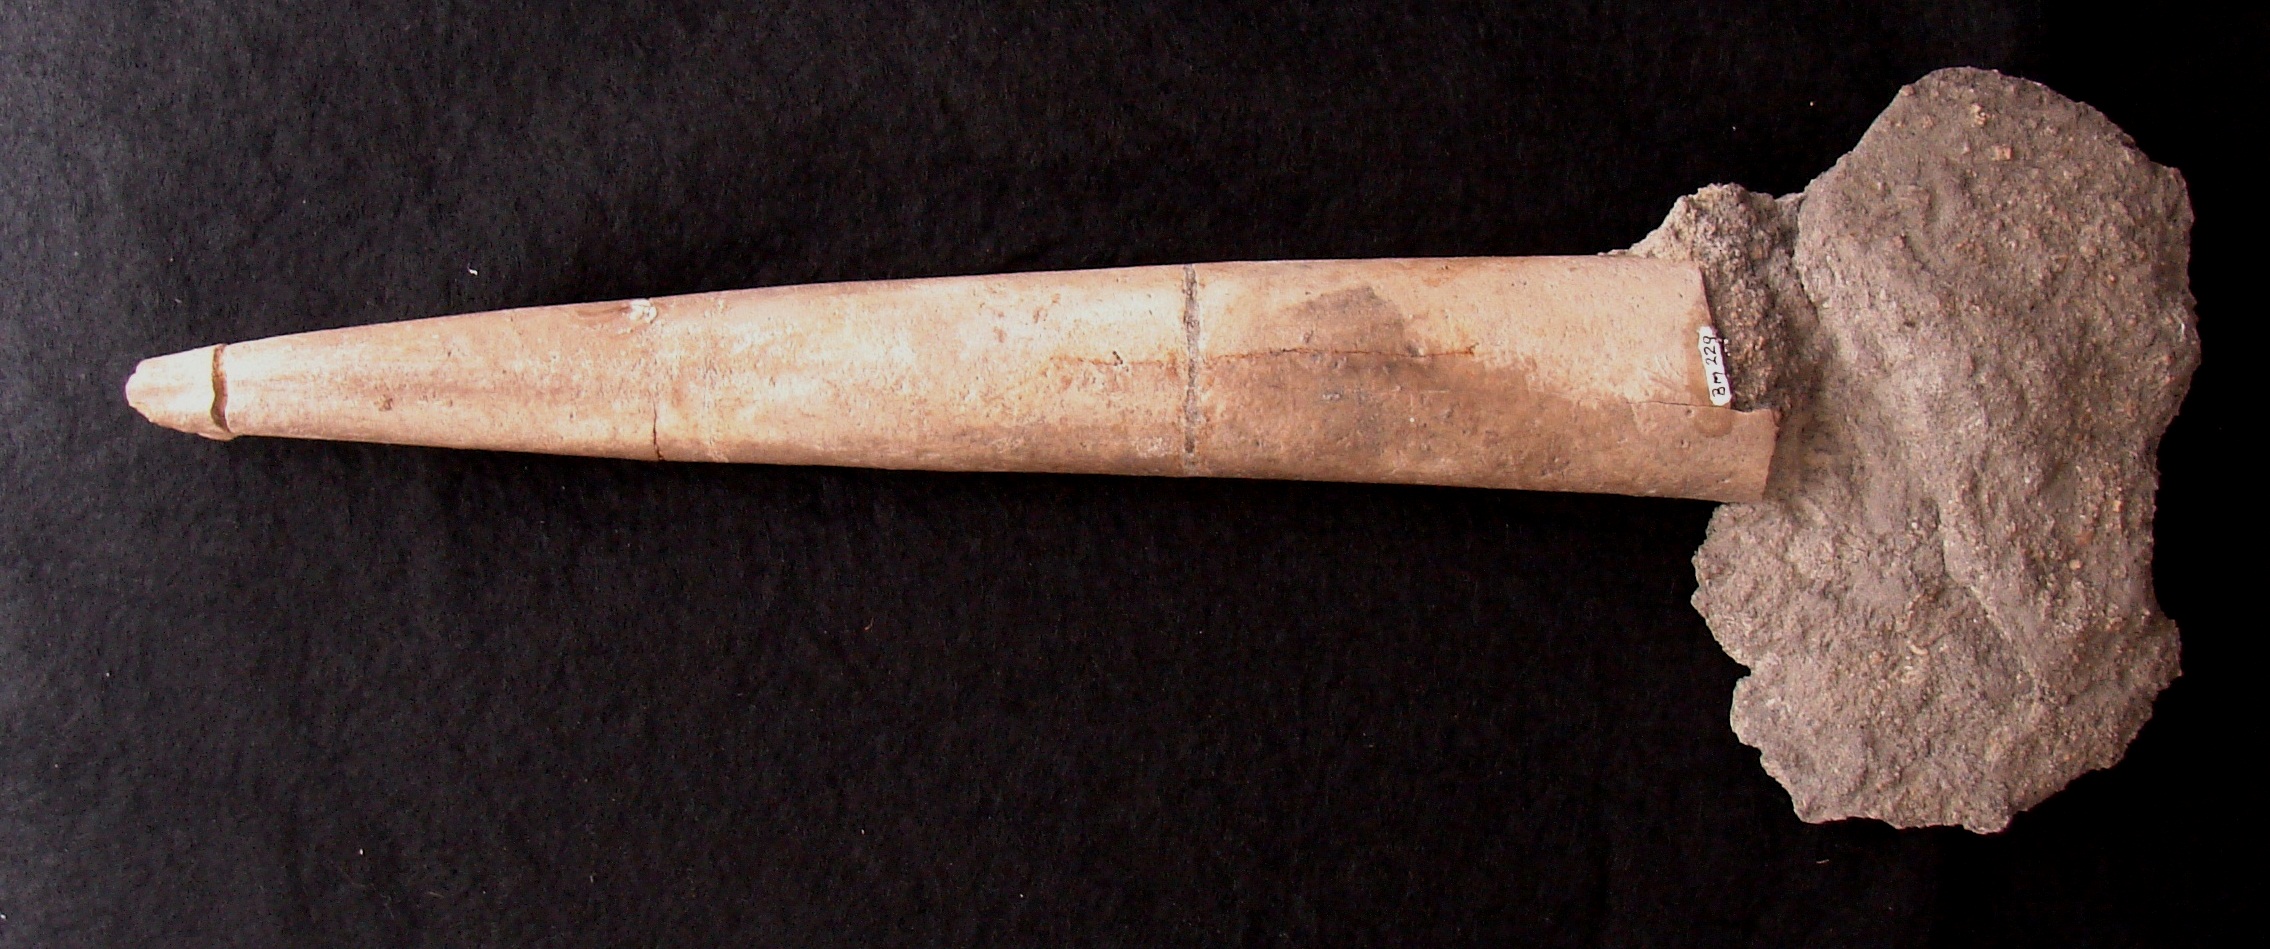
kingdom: Animalia
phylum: Mollusca
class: Cephalopoda
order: Belemnitida
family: Megateuthididae
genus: Megateuthis
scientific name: Megateuthis
